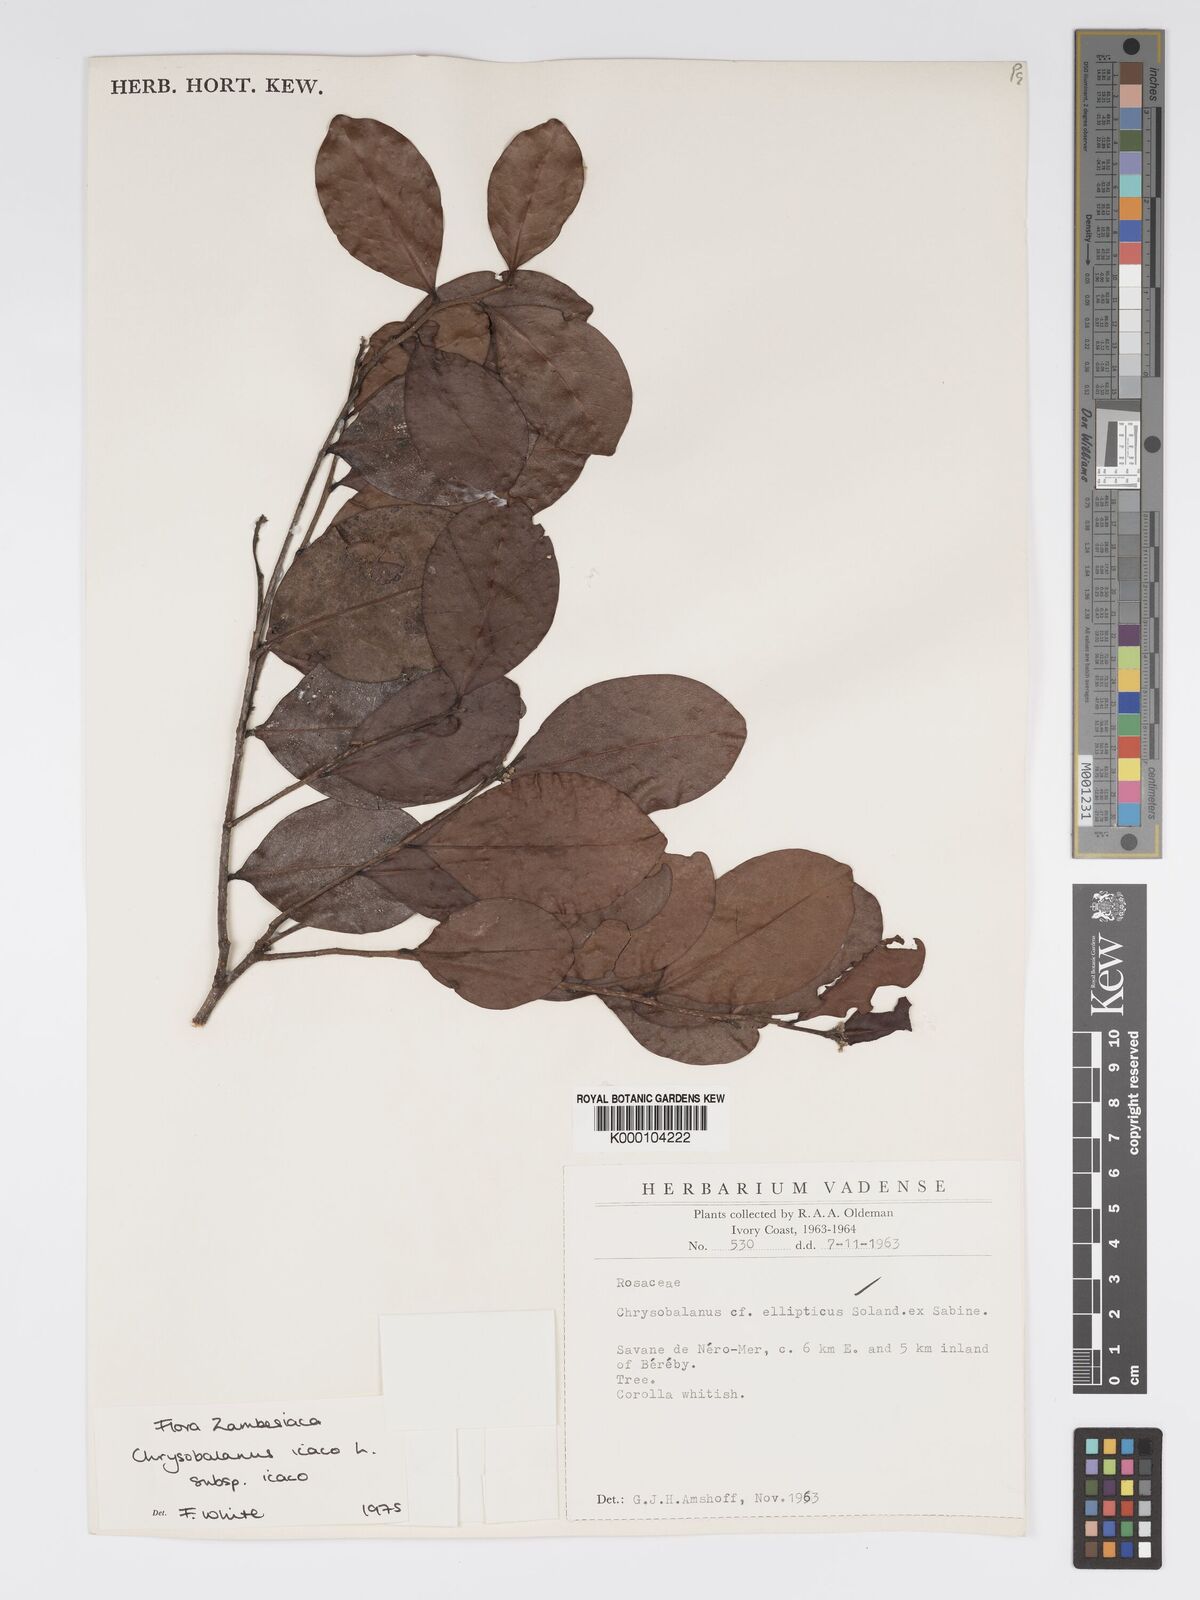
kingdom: Plantae
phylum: Tracheophyta
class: Magnoliopsida
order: Malpighiales
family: Chrysobalanaceae
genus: Chrysobalanus
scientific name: Chrysobalanus icaco
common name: Coco plum
